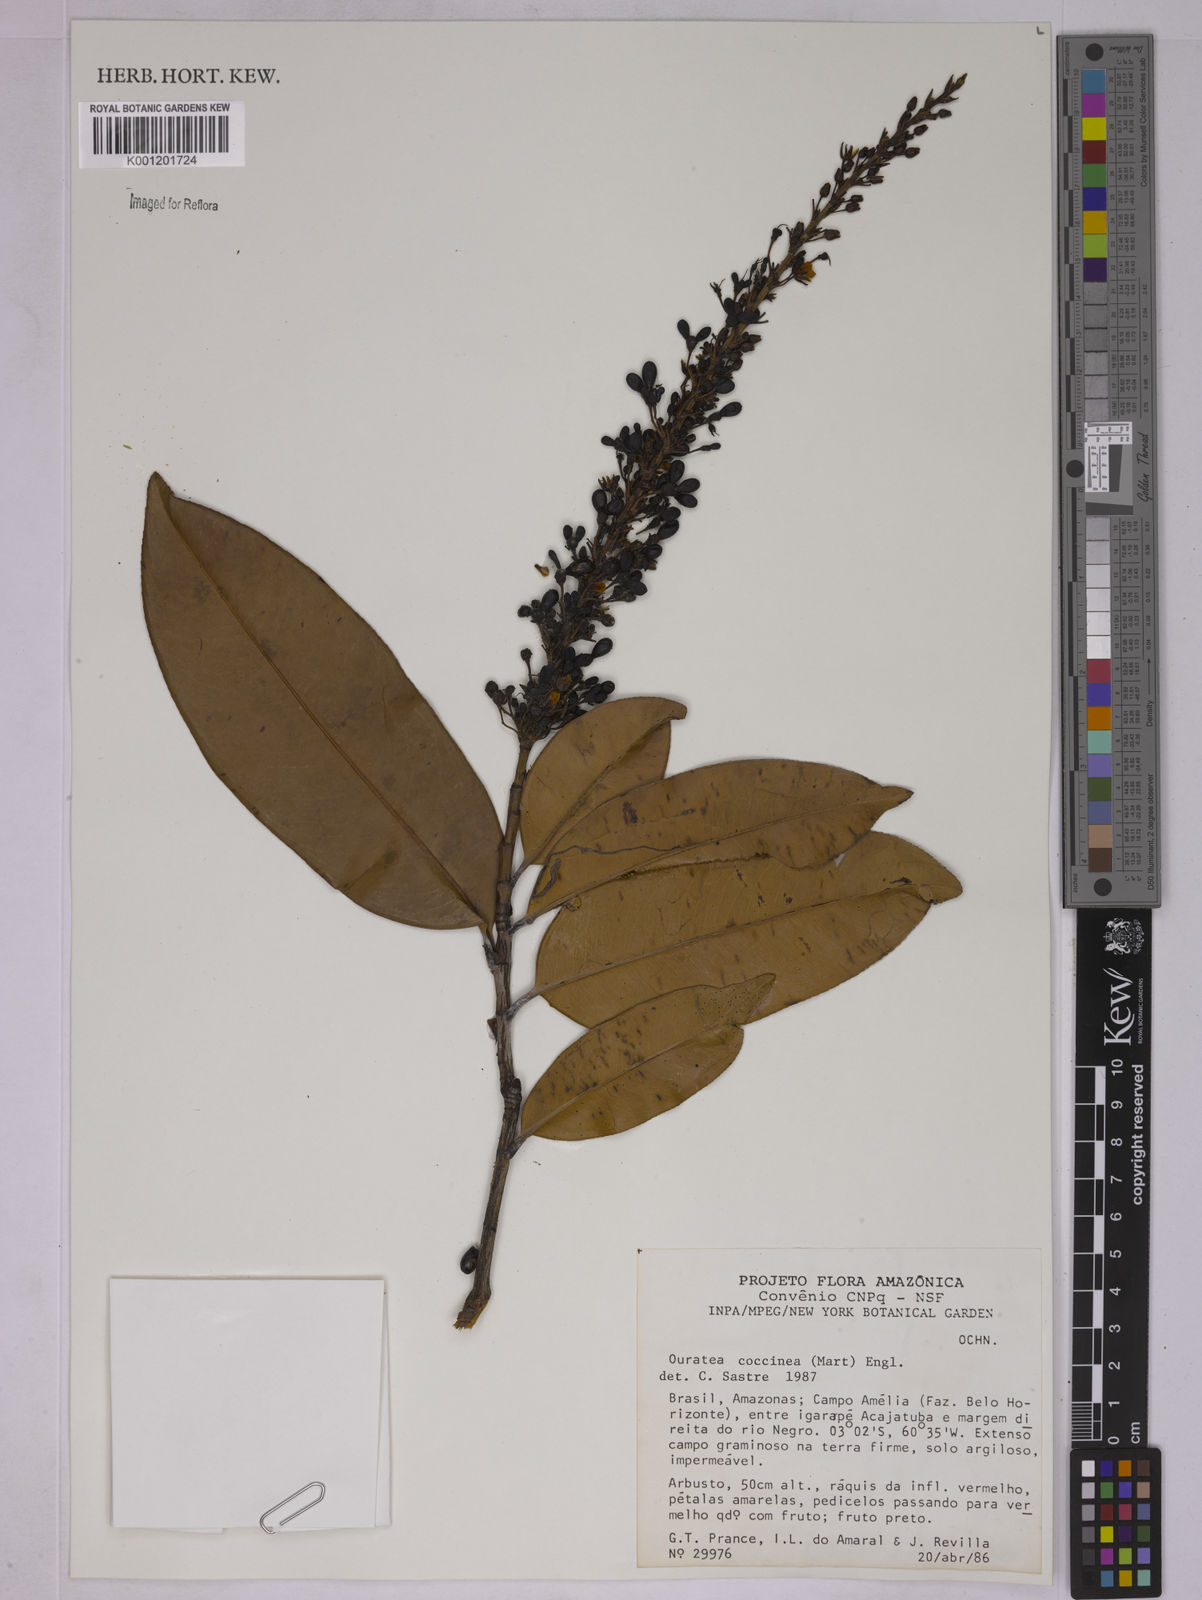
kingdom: Plantae
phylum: Tracheophyta
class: Magnoliopsida
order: Malpighiales
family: Ochnaceae
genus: Ouratea
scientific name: Ouratea coccinea
